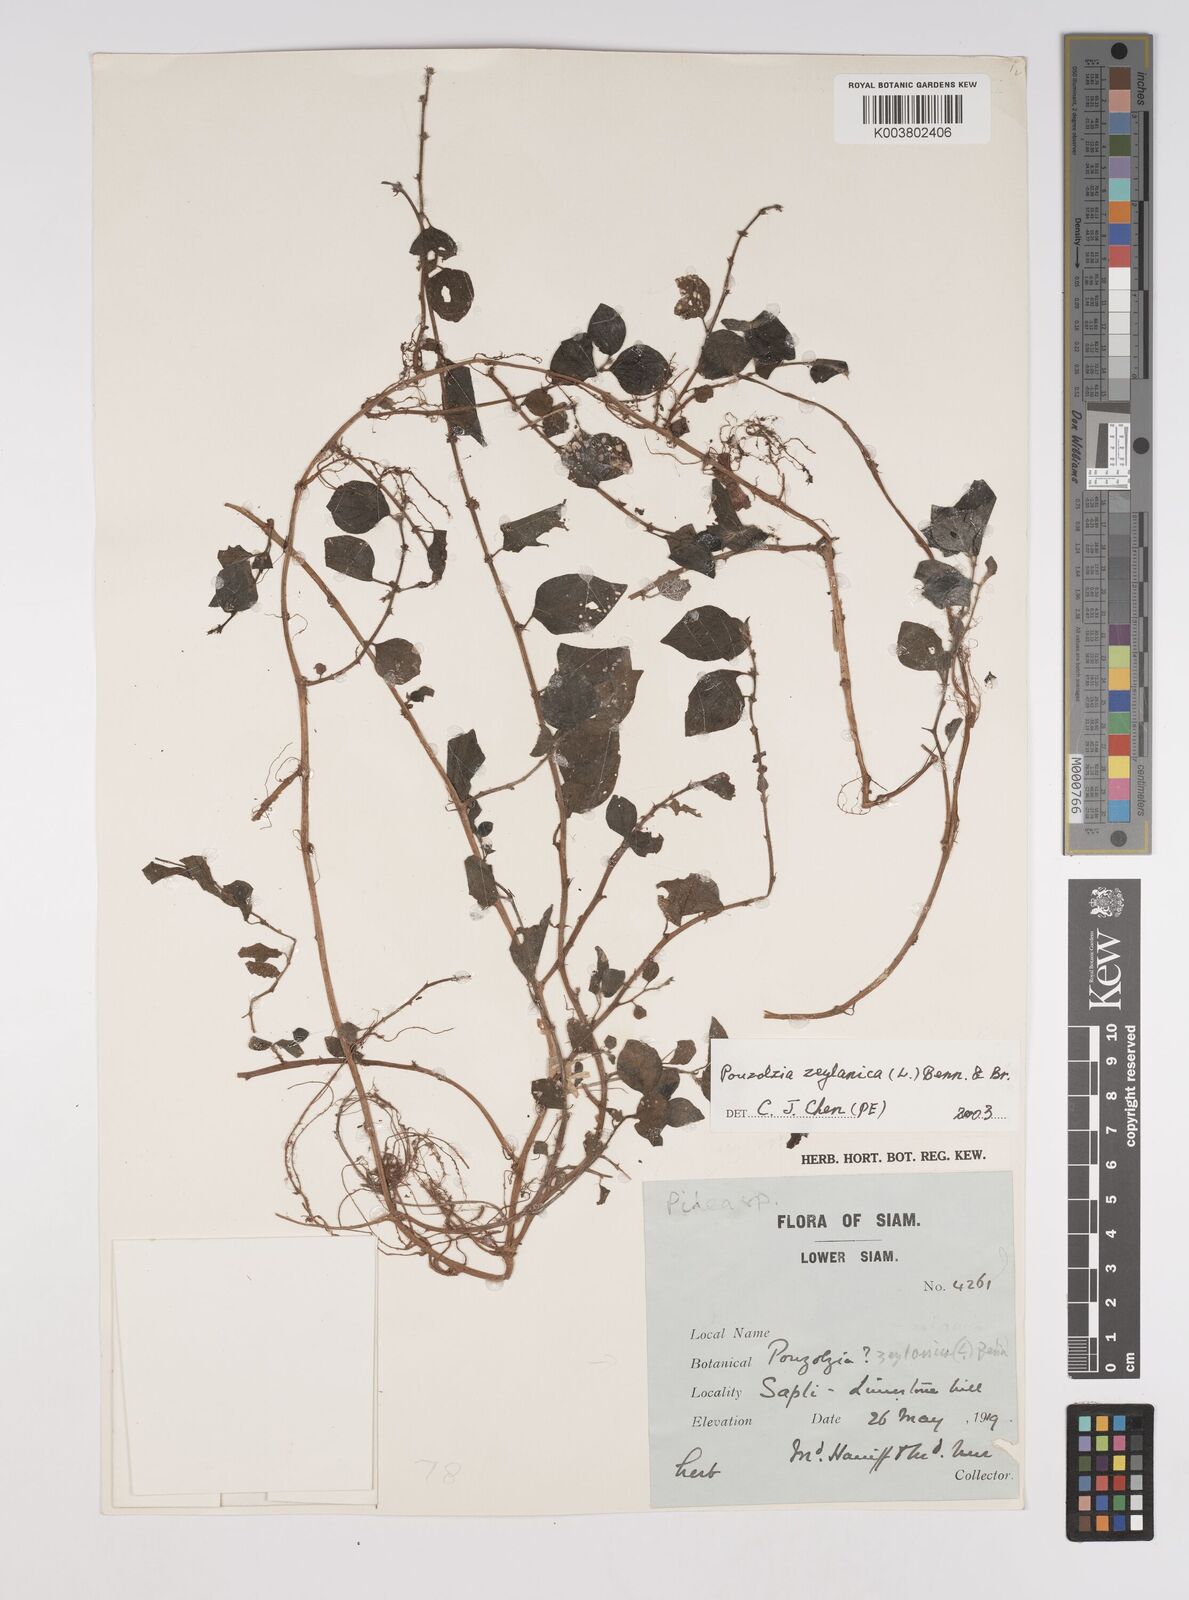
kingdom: Plantae
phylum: Tracheophyta
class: Magnoliopsida
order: Rosales
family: Urticaceae
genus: Pouzolzia
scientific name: Pouzolzia zeylanica
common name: Graceful pouzolzsbush
